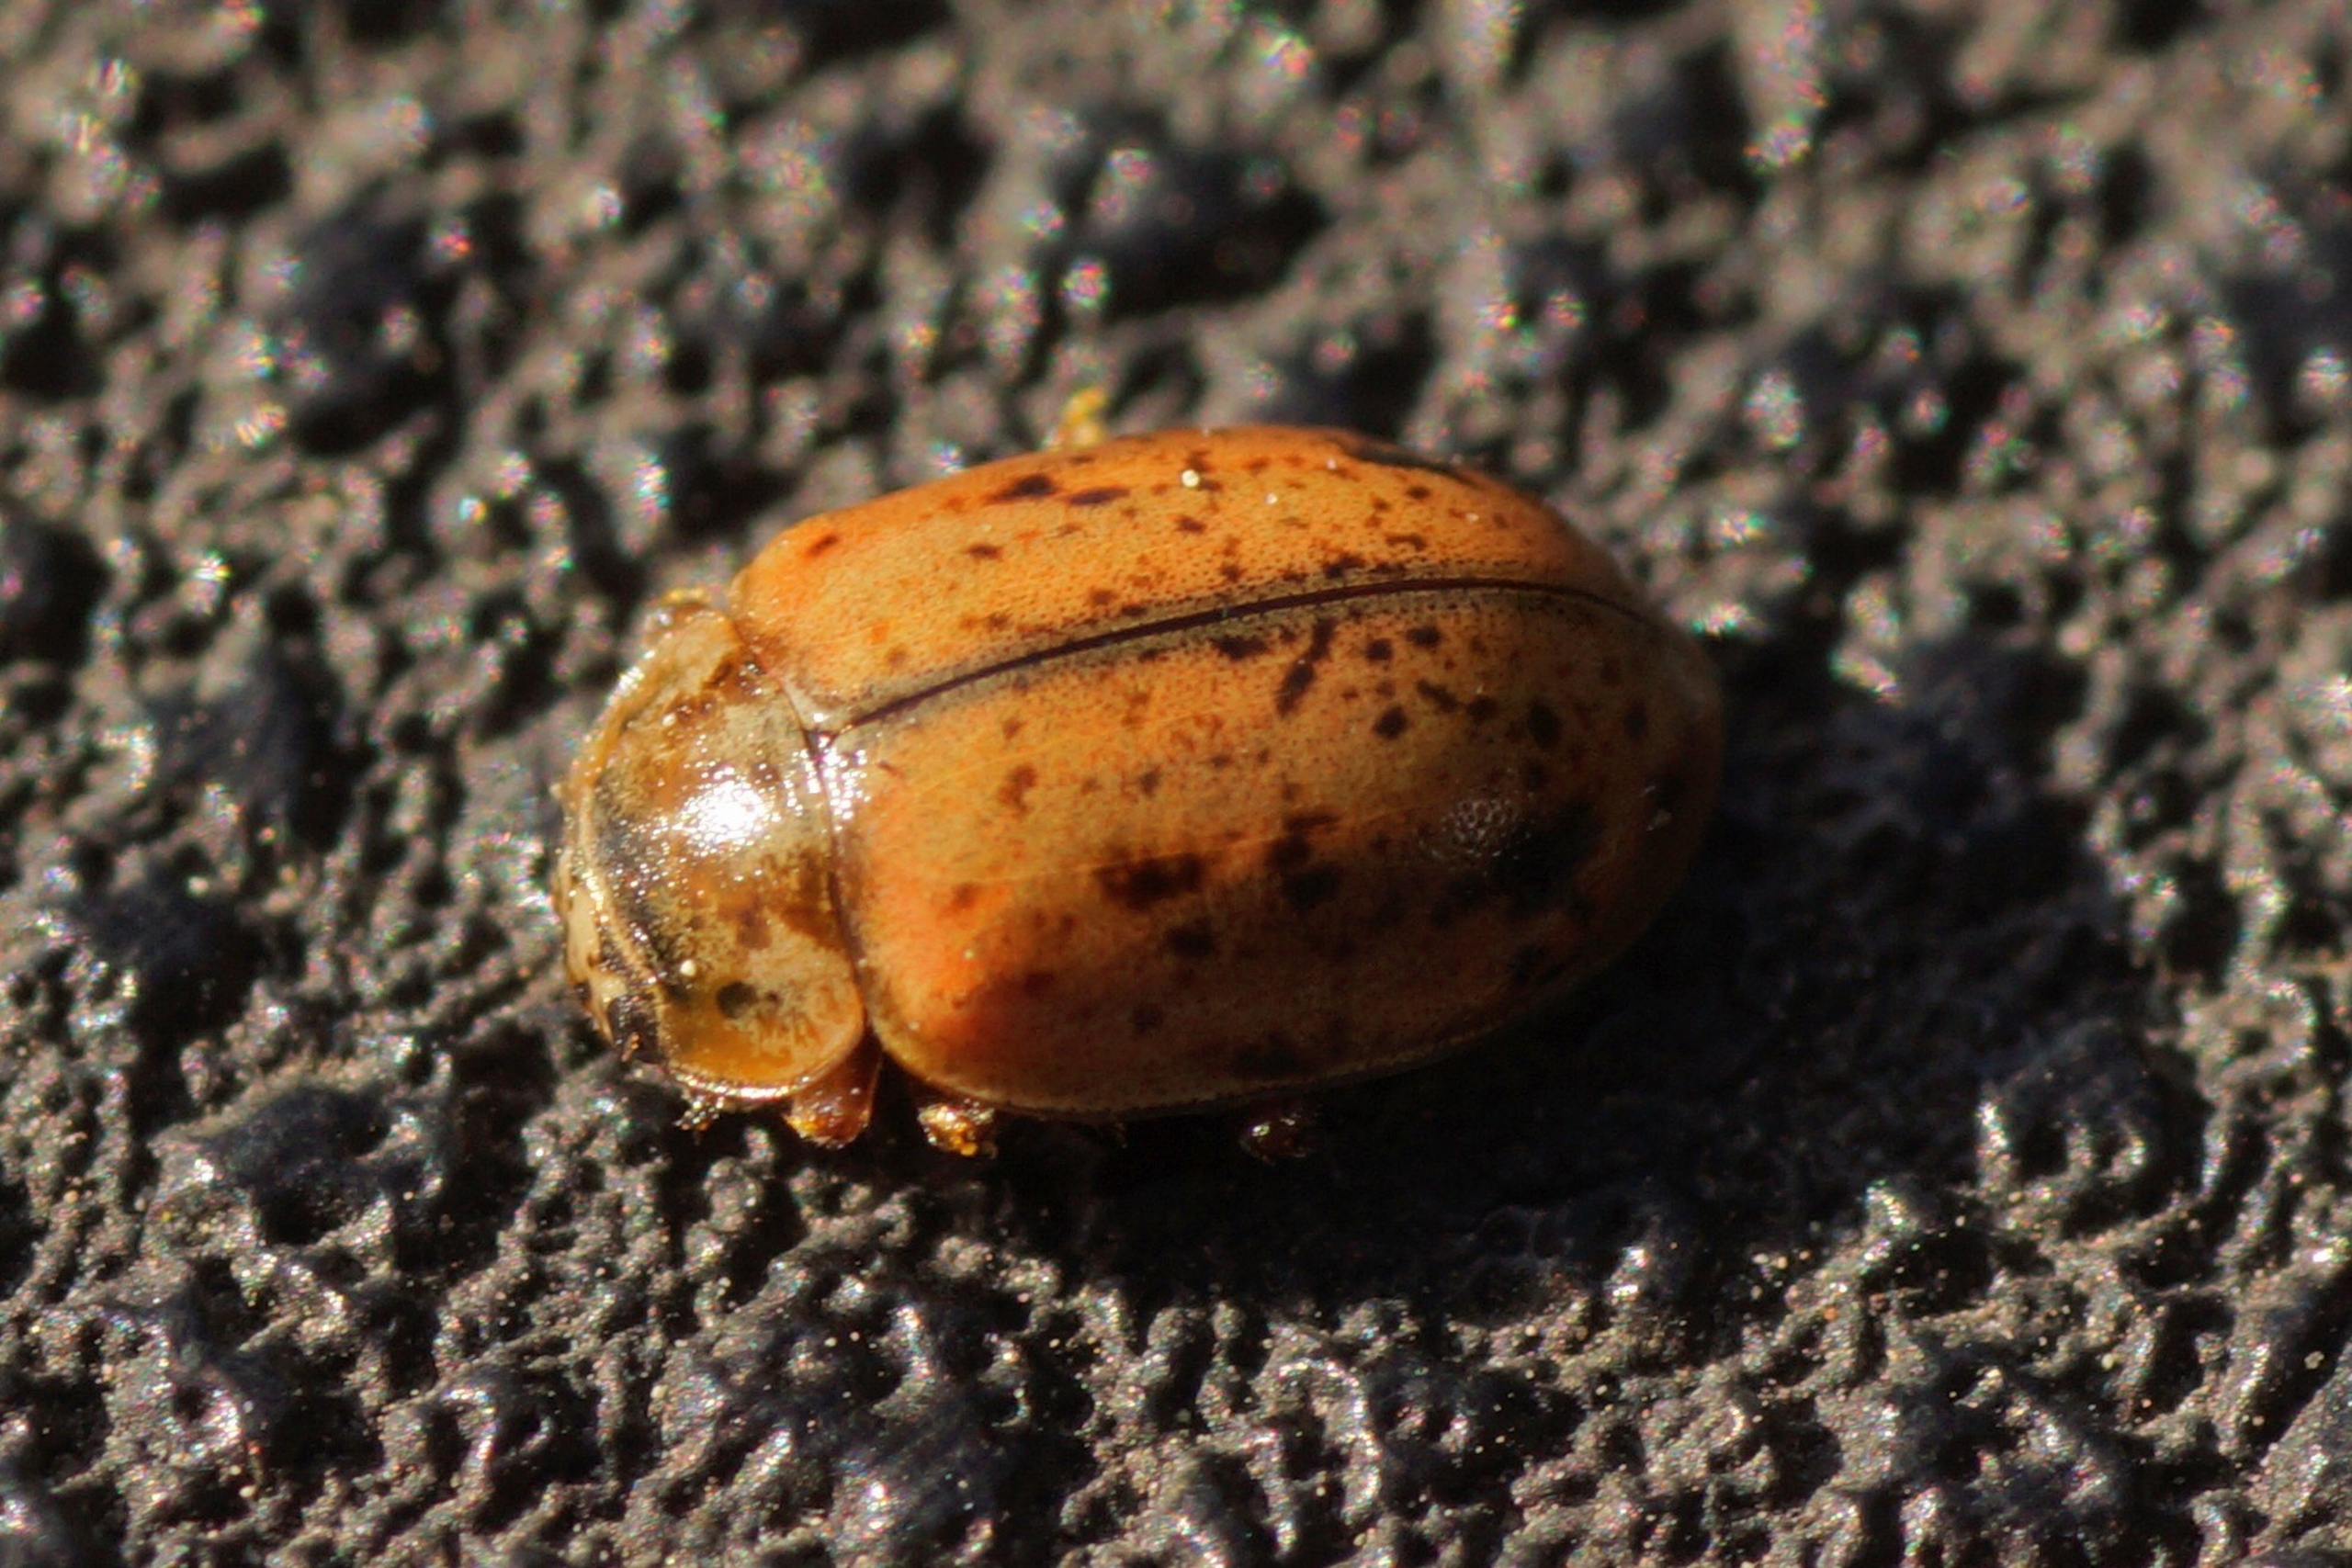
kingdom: Animalia
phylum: Arthropoda
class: Insecta
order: Coleoptera
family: Coccinellidae
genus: Aphidecta
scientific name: Aphidecta obliterata
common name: Uplettet mariehøne
